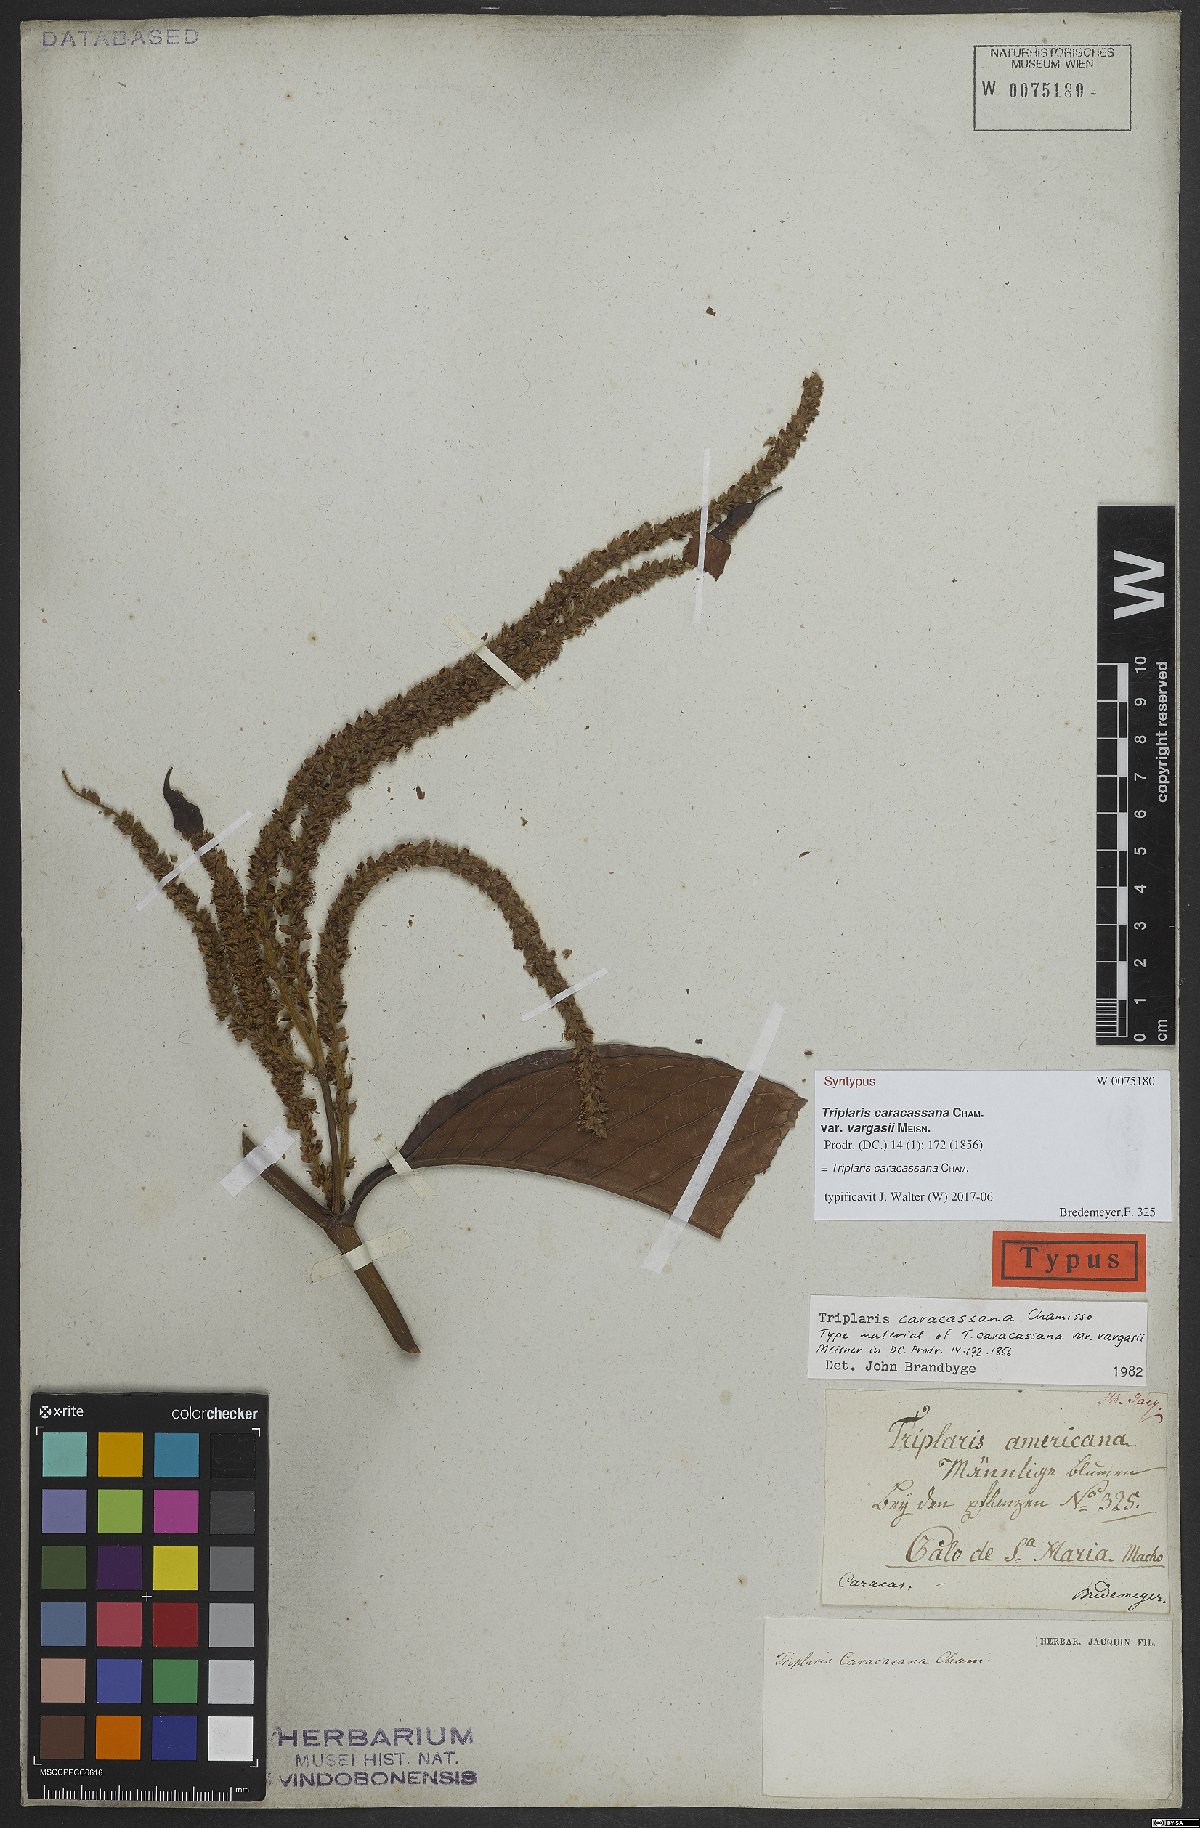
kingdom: Plantae
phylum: Tracheophyta
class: Magnoliopsida
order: Caryophyllales
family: Polygonaceae
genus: Triplaris
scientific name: Triplaris caracasana
